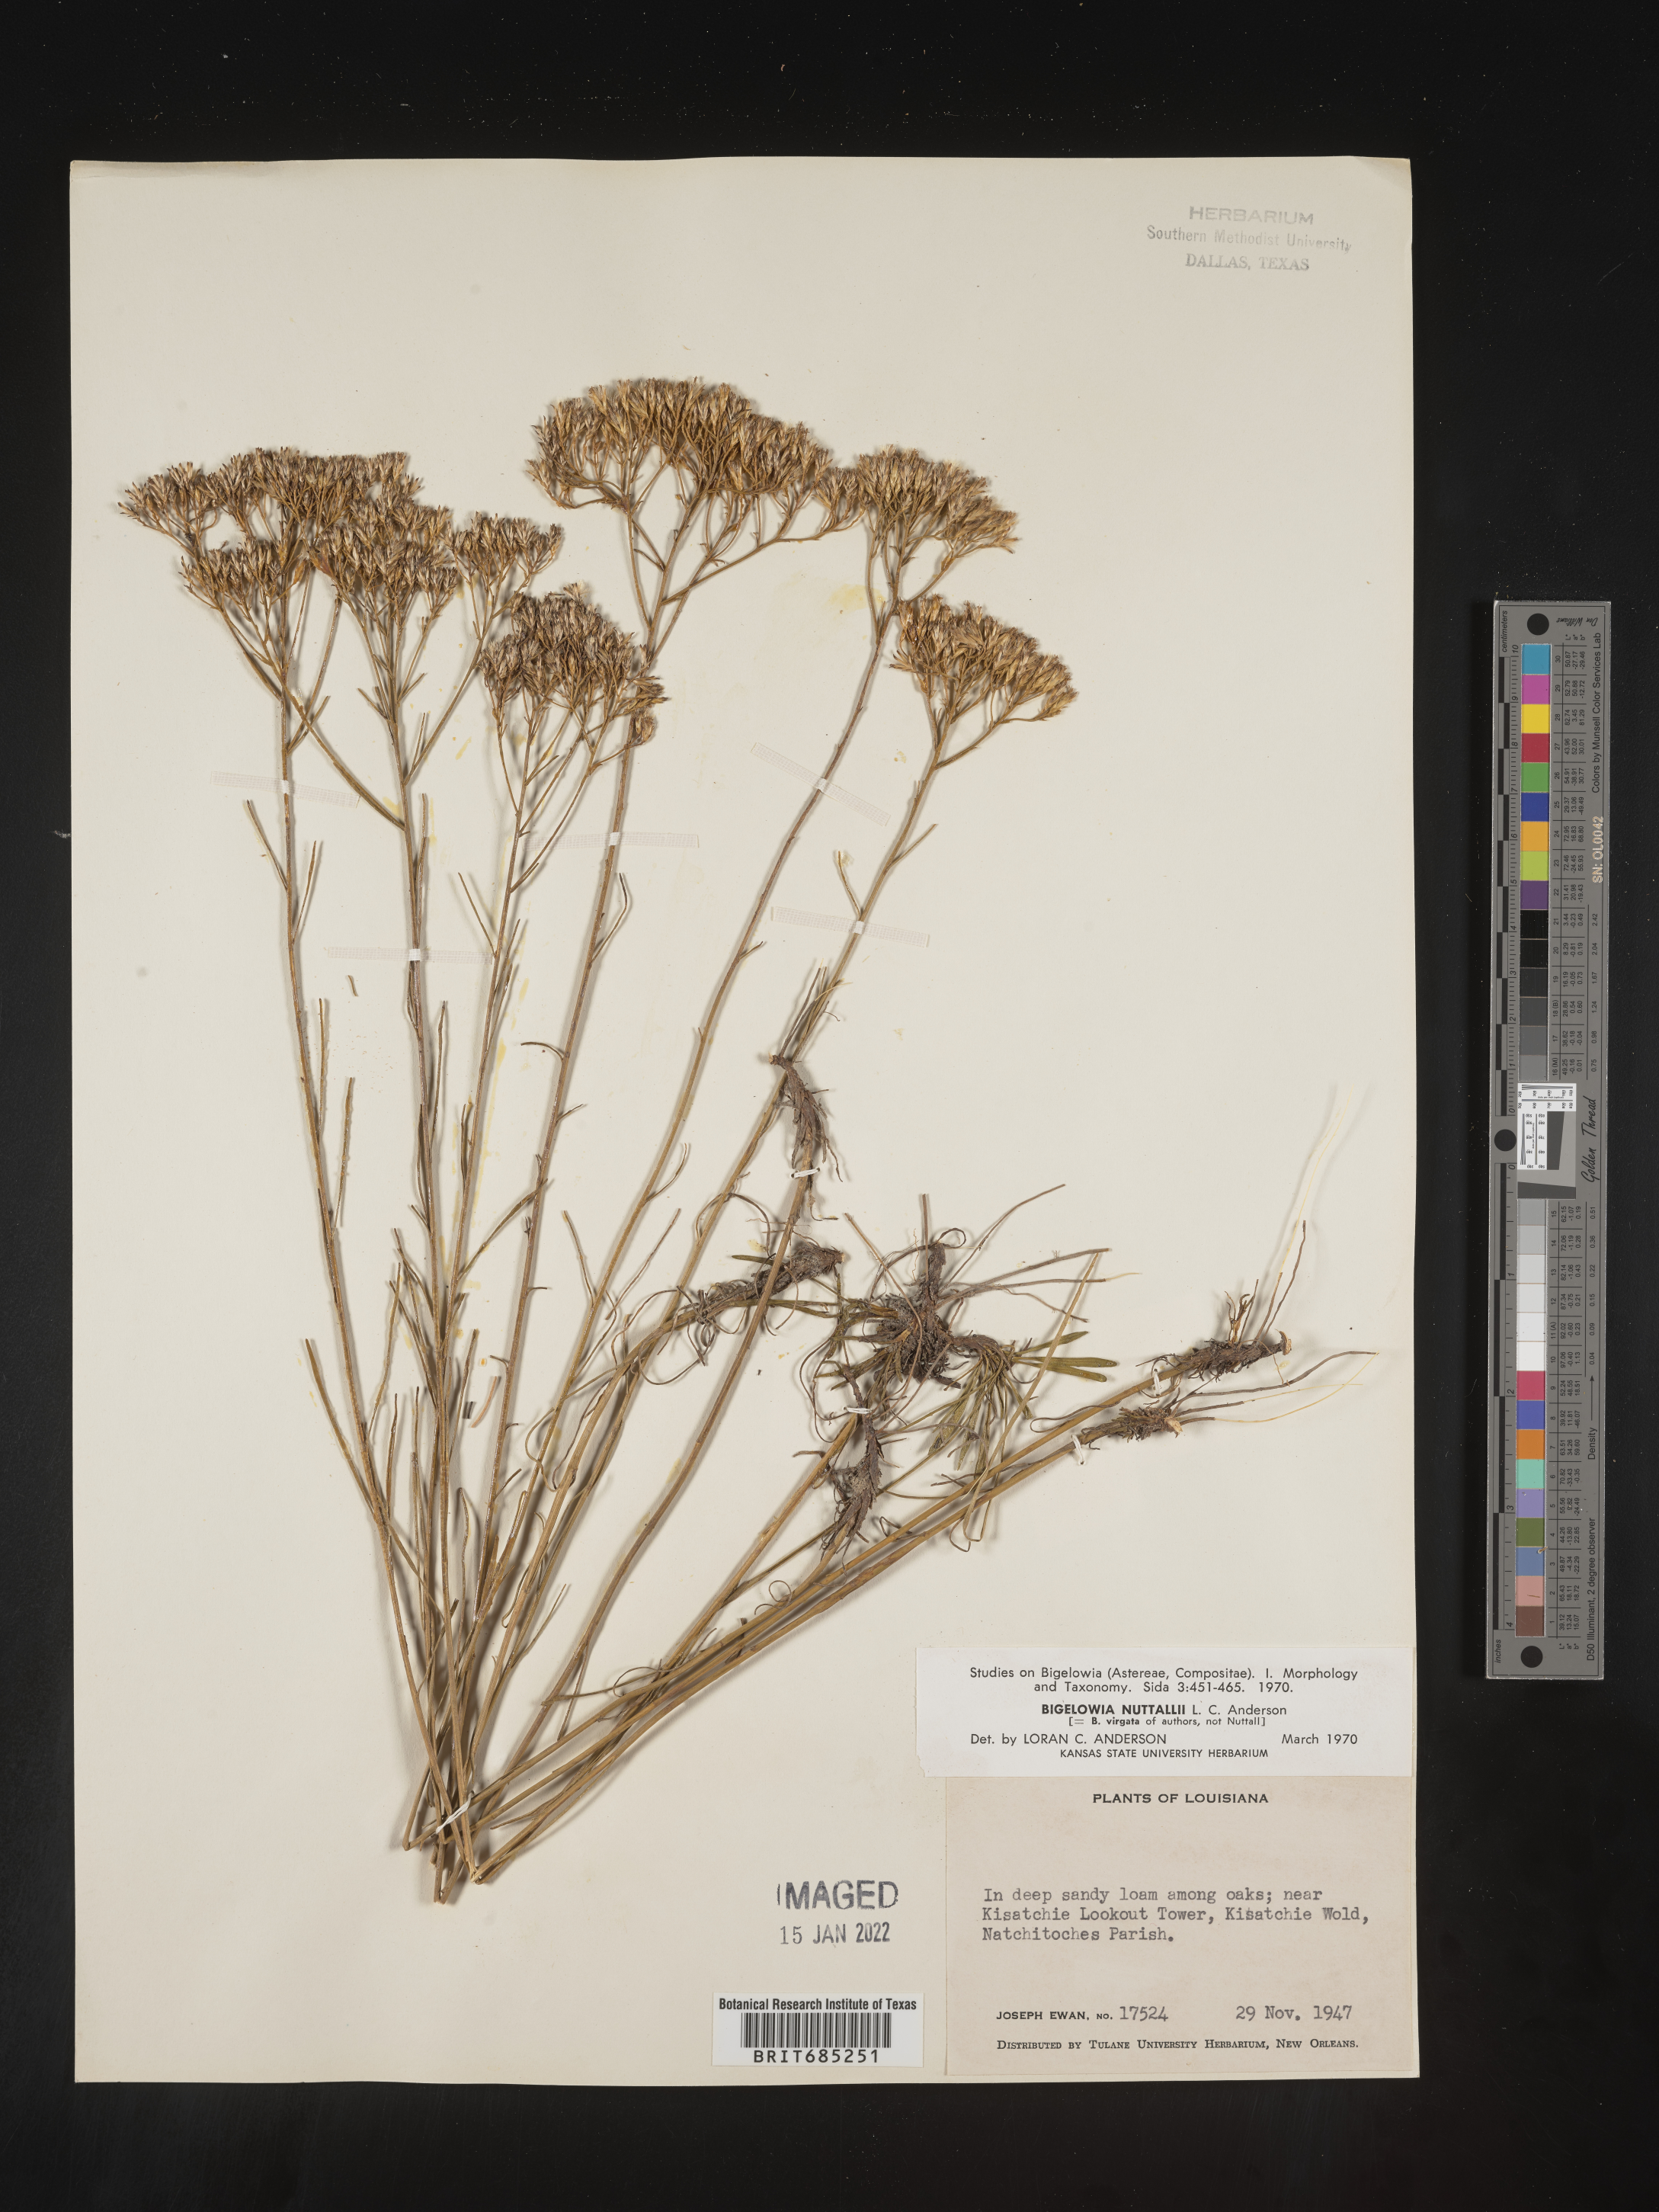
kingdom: Plantae
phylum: Tracheophyta
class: Magnoliopsida
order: Asterales
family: Asteraceae
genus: Bigelowia
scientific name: Bigelowia nuttallii
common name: Nuttall's rayless-goldenrod
